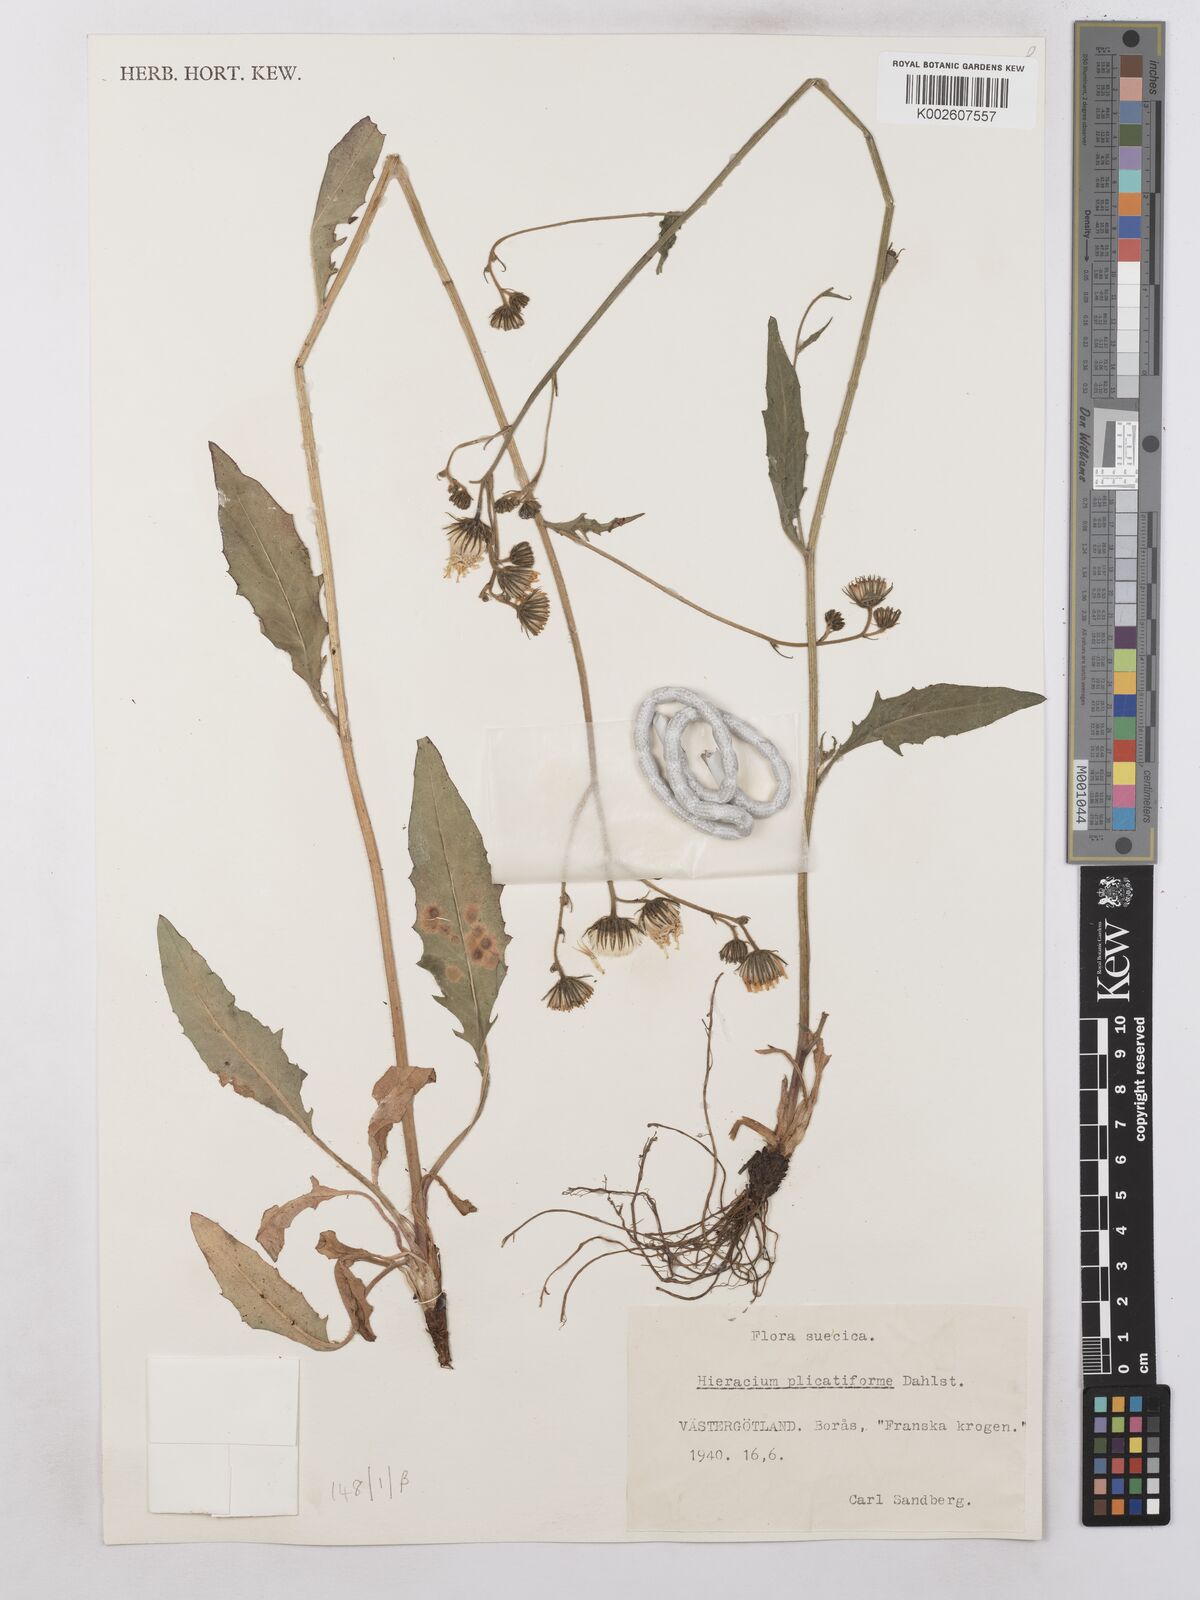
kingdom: Plantae
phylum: Tracheophyta
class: Magnoliopsida
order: Asterales
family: Asteraceae
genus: Hieracium
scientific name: Hieracium subramosum
